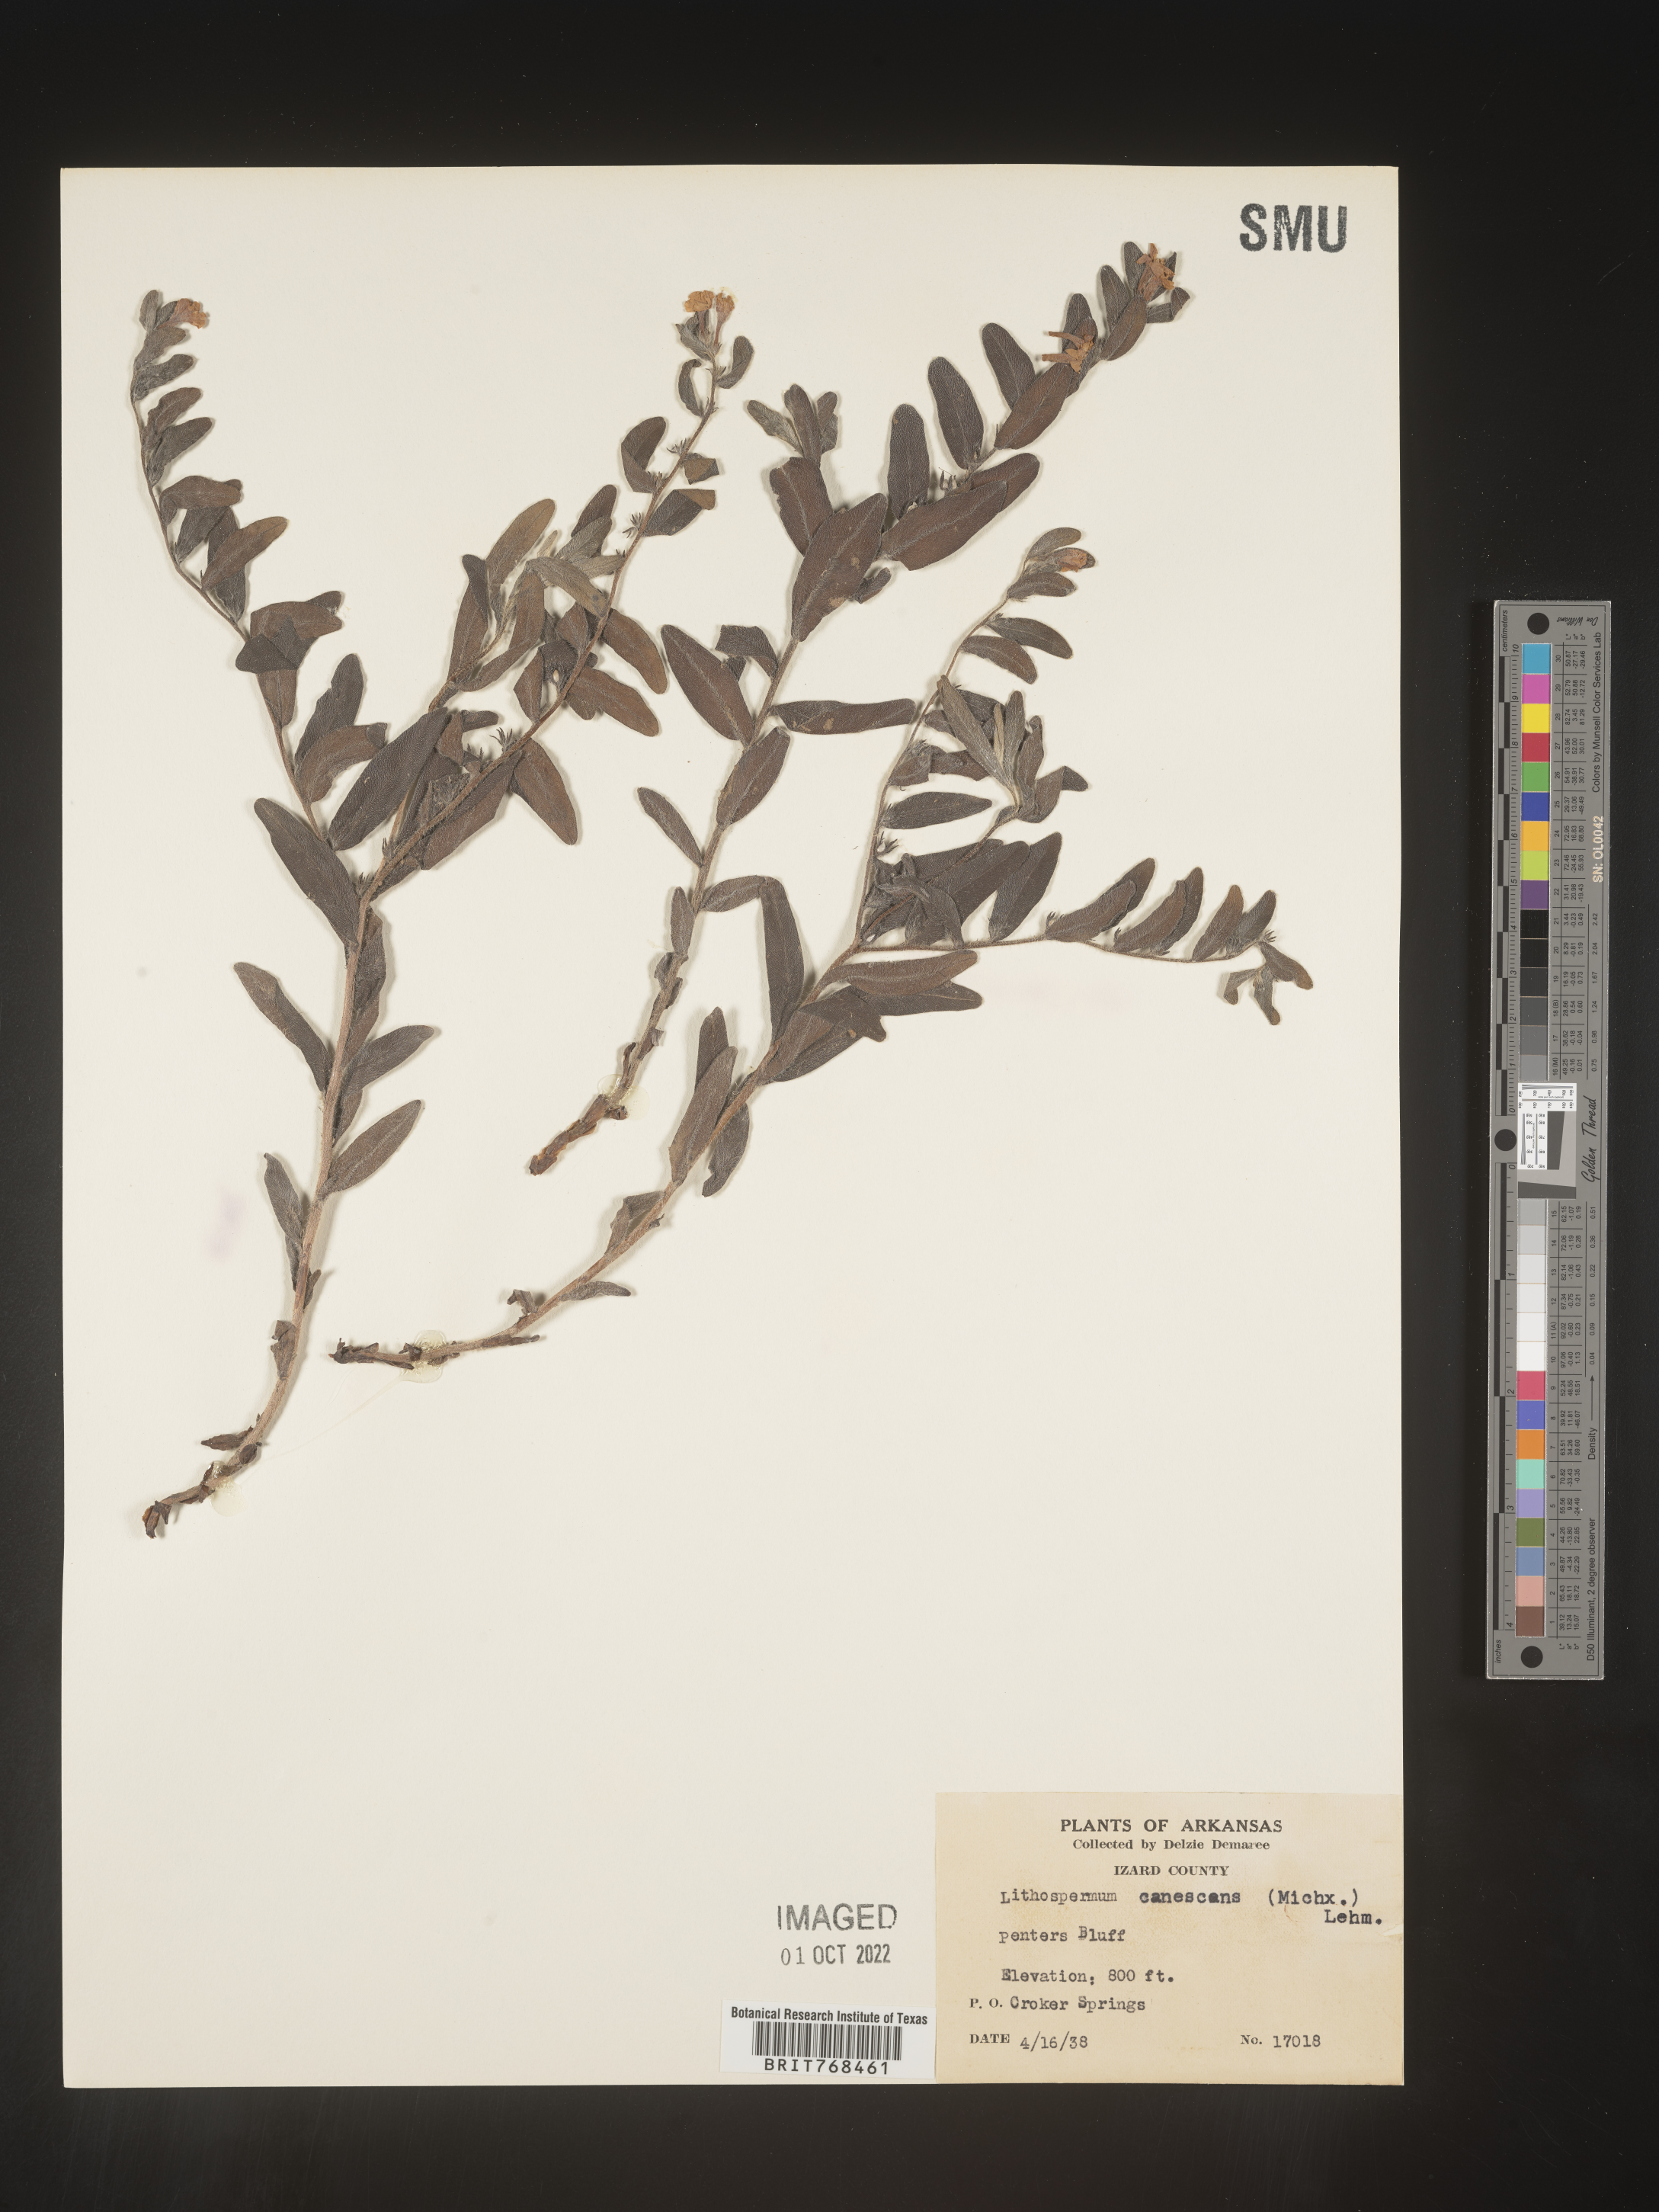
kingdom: Plantae
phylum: Tracheophyta
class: Magnoliopsida
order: Boraginales
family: Boraginaceae
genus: Lithospermum
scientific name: Lithospermum canescens
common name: Hoary puccoon
